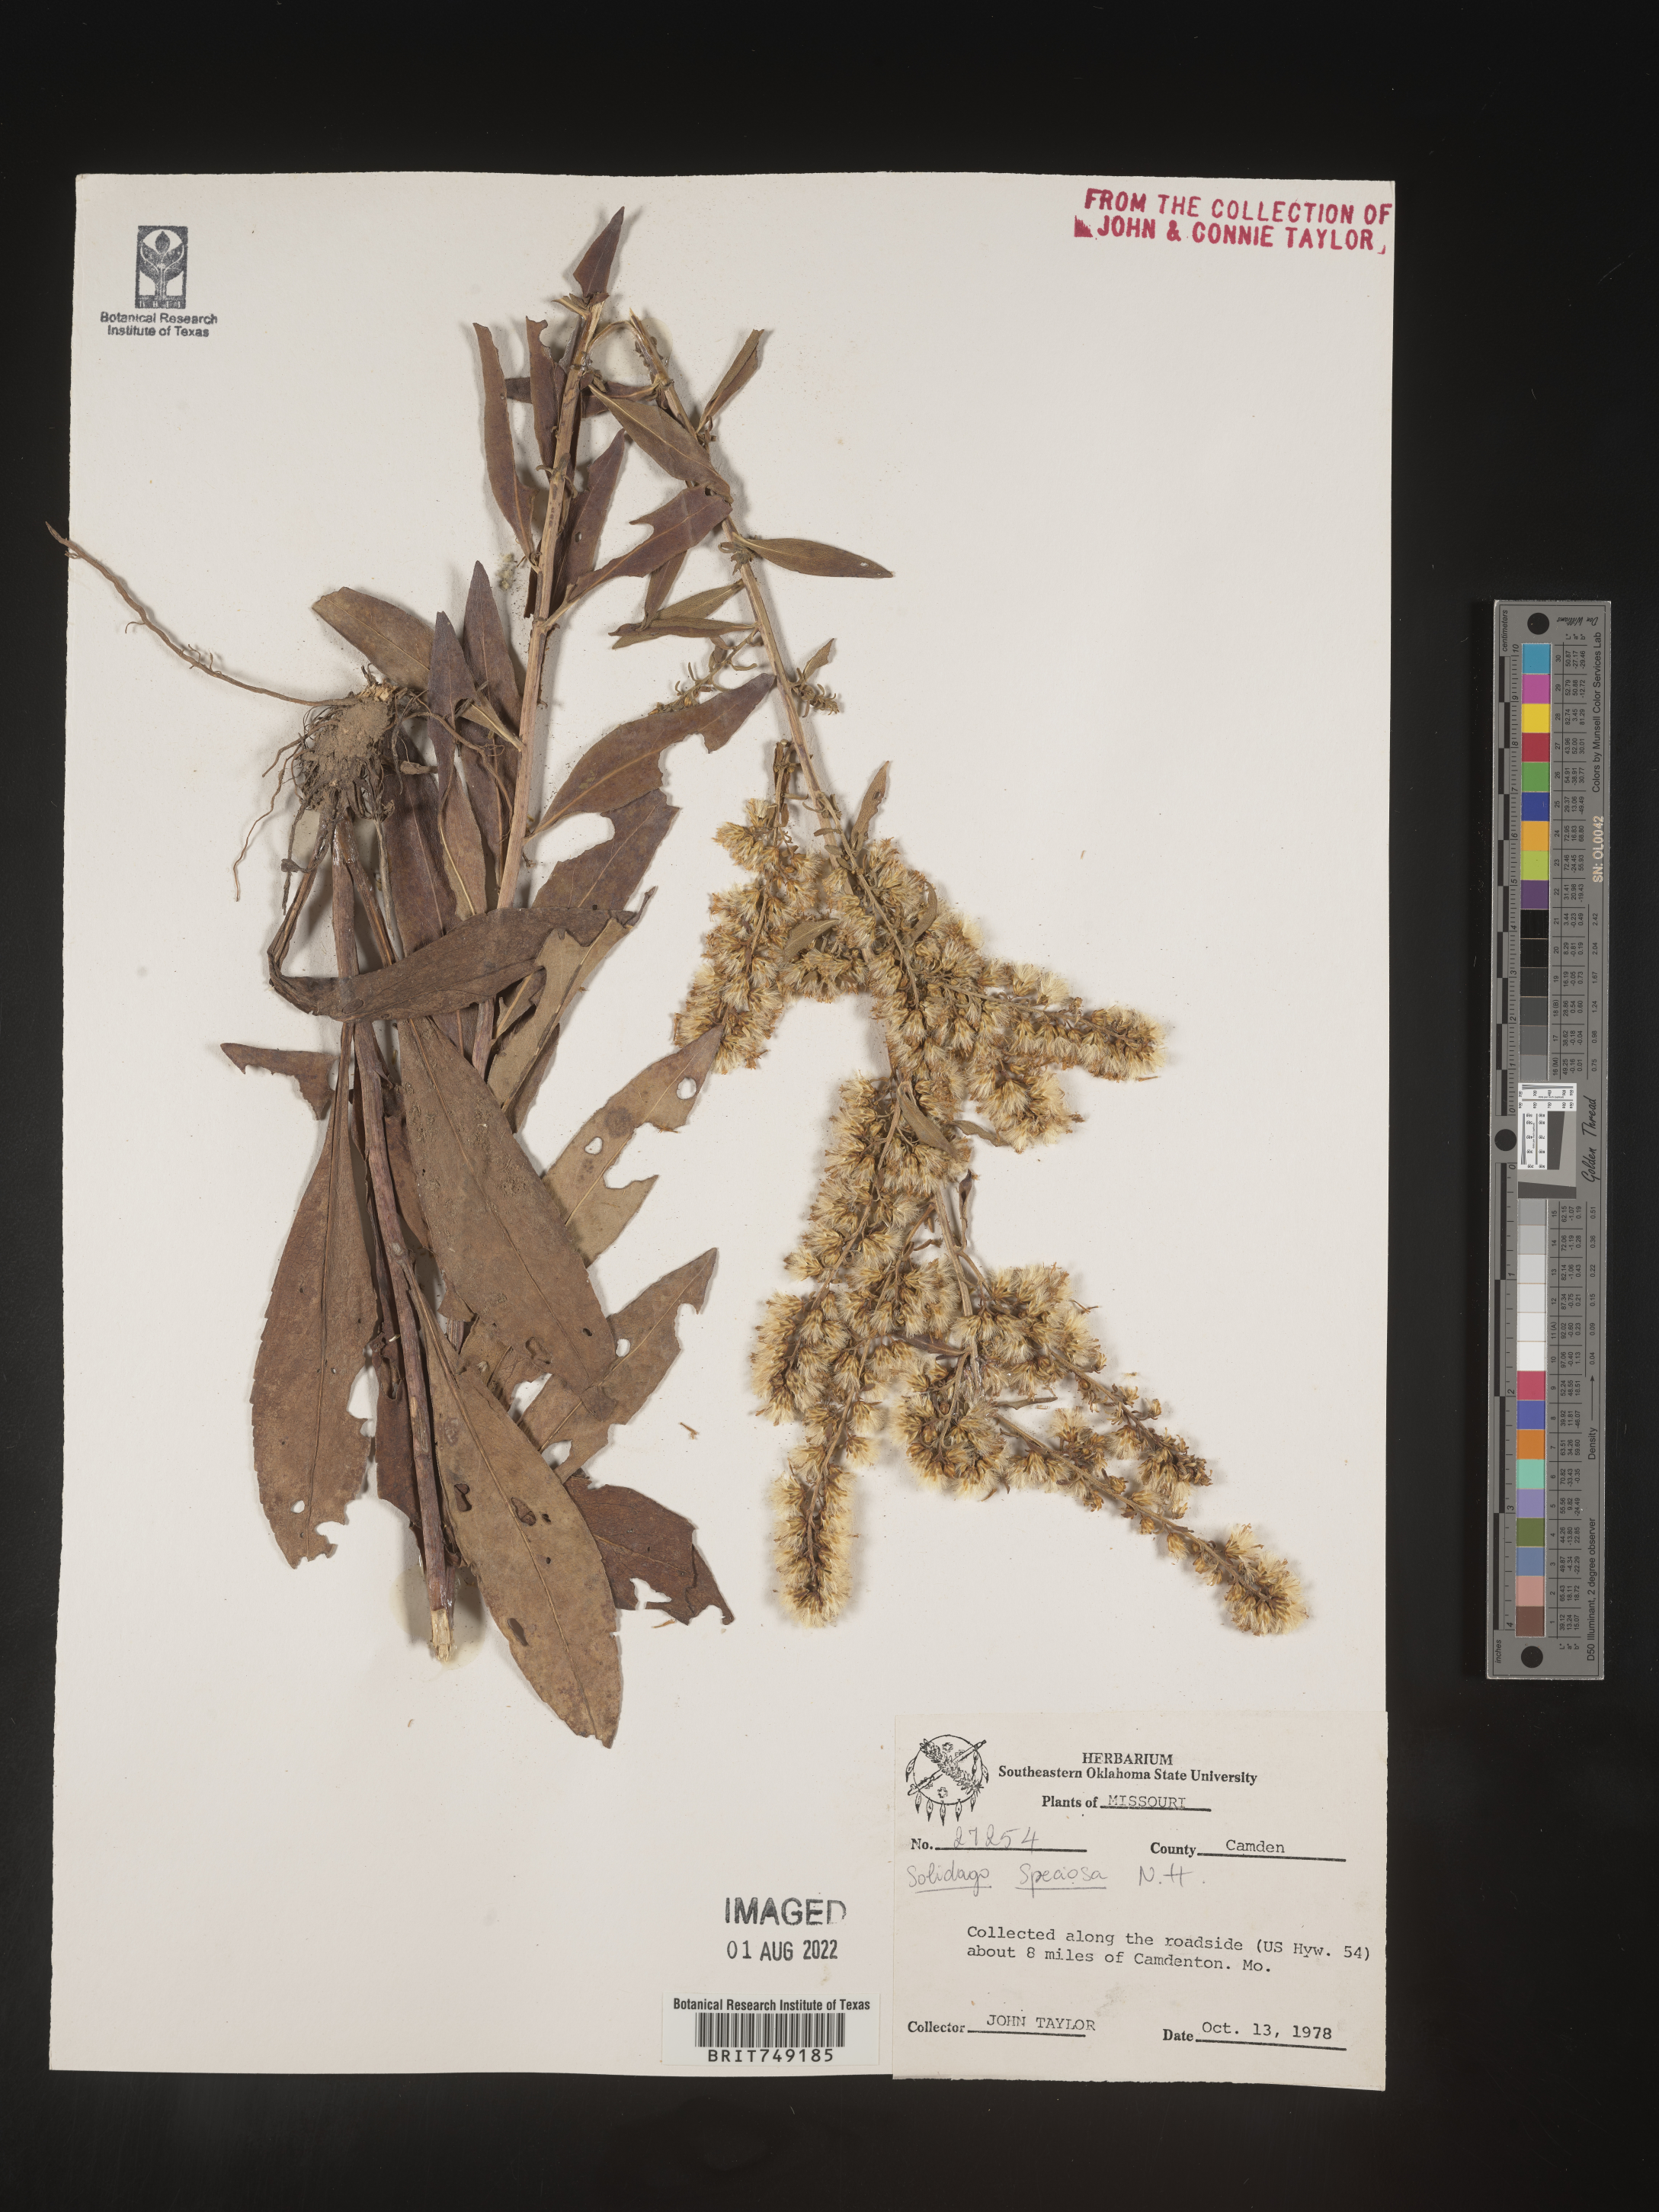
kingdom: Plantae
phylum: Tracheophyta
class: Magnoliopsida
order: Asterales
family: Asteraceae
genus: Solidago
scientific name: Solidago speciosa
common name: Showy goldenrod
